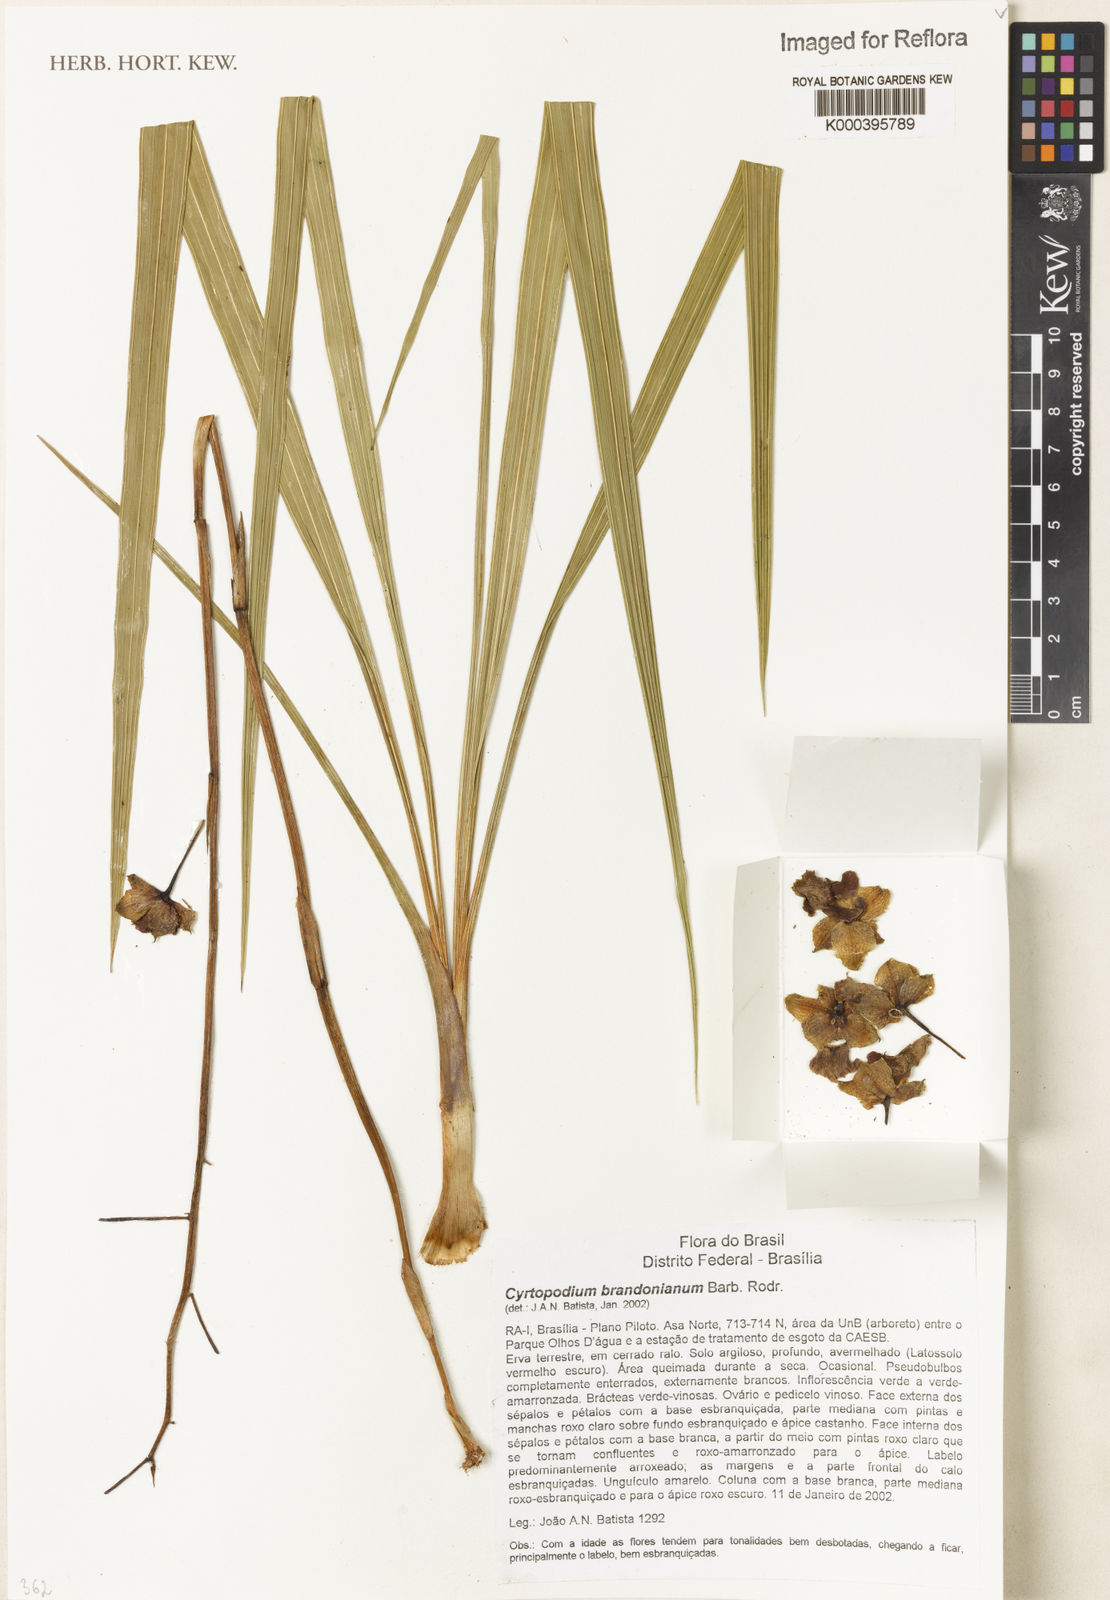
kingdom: Plantae
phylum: Tracheophyta
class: Liliopsida
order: Asparagales
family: Orchidaceae
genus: Cyrtopodium
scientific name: Cyrtopodium brandonianum
